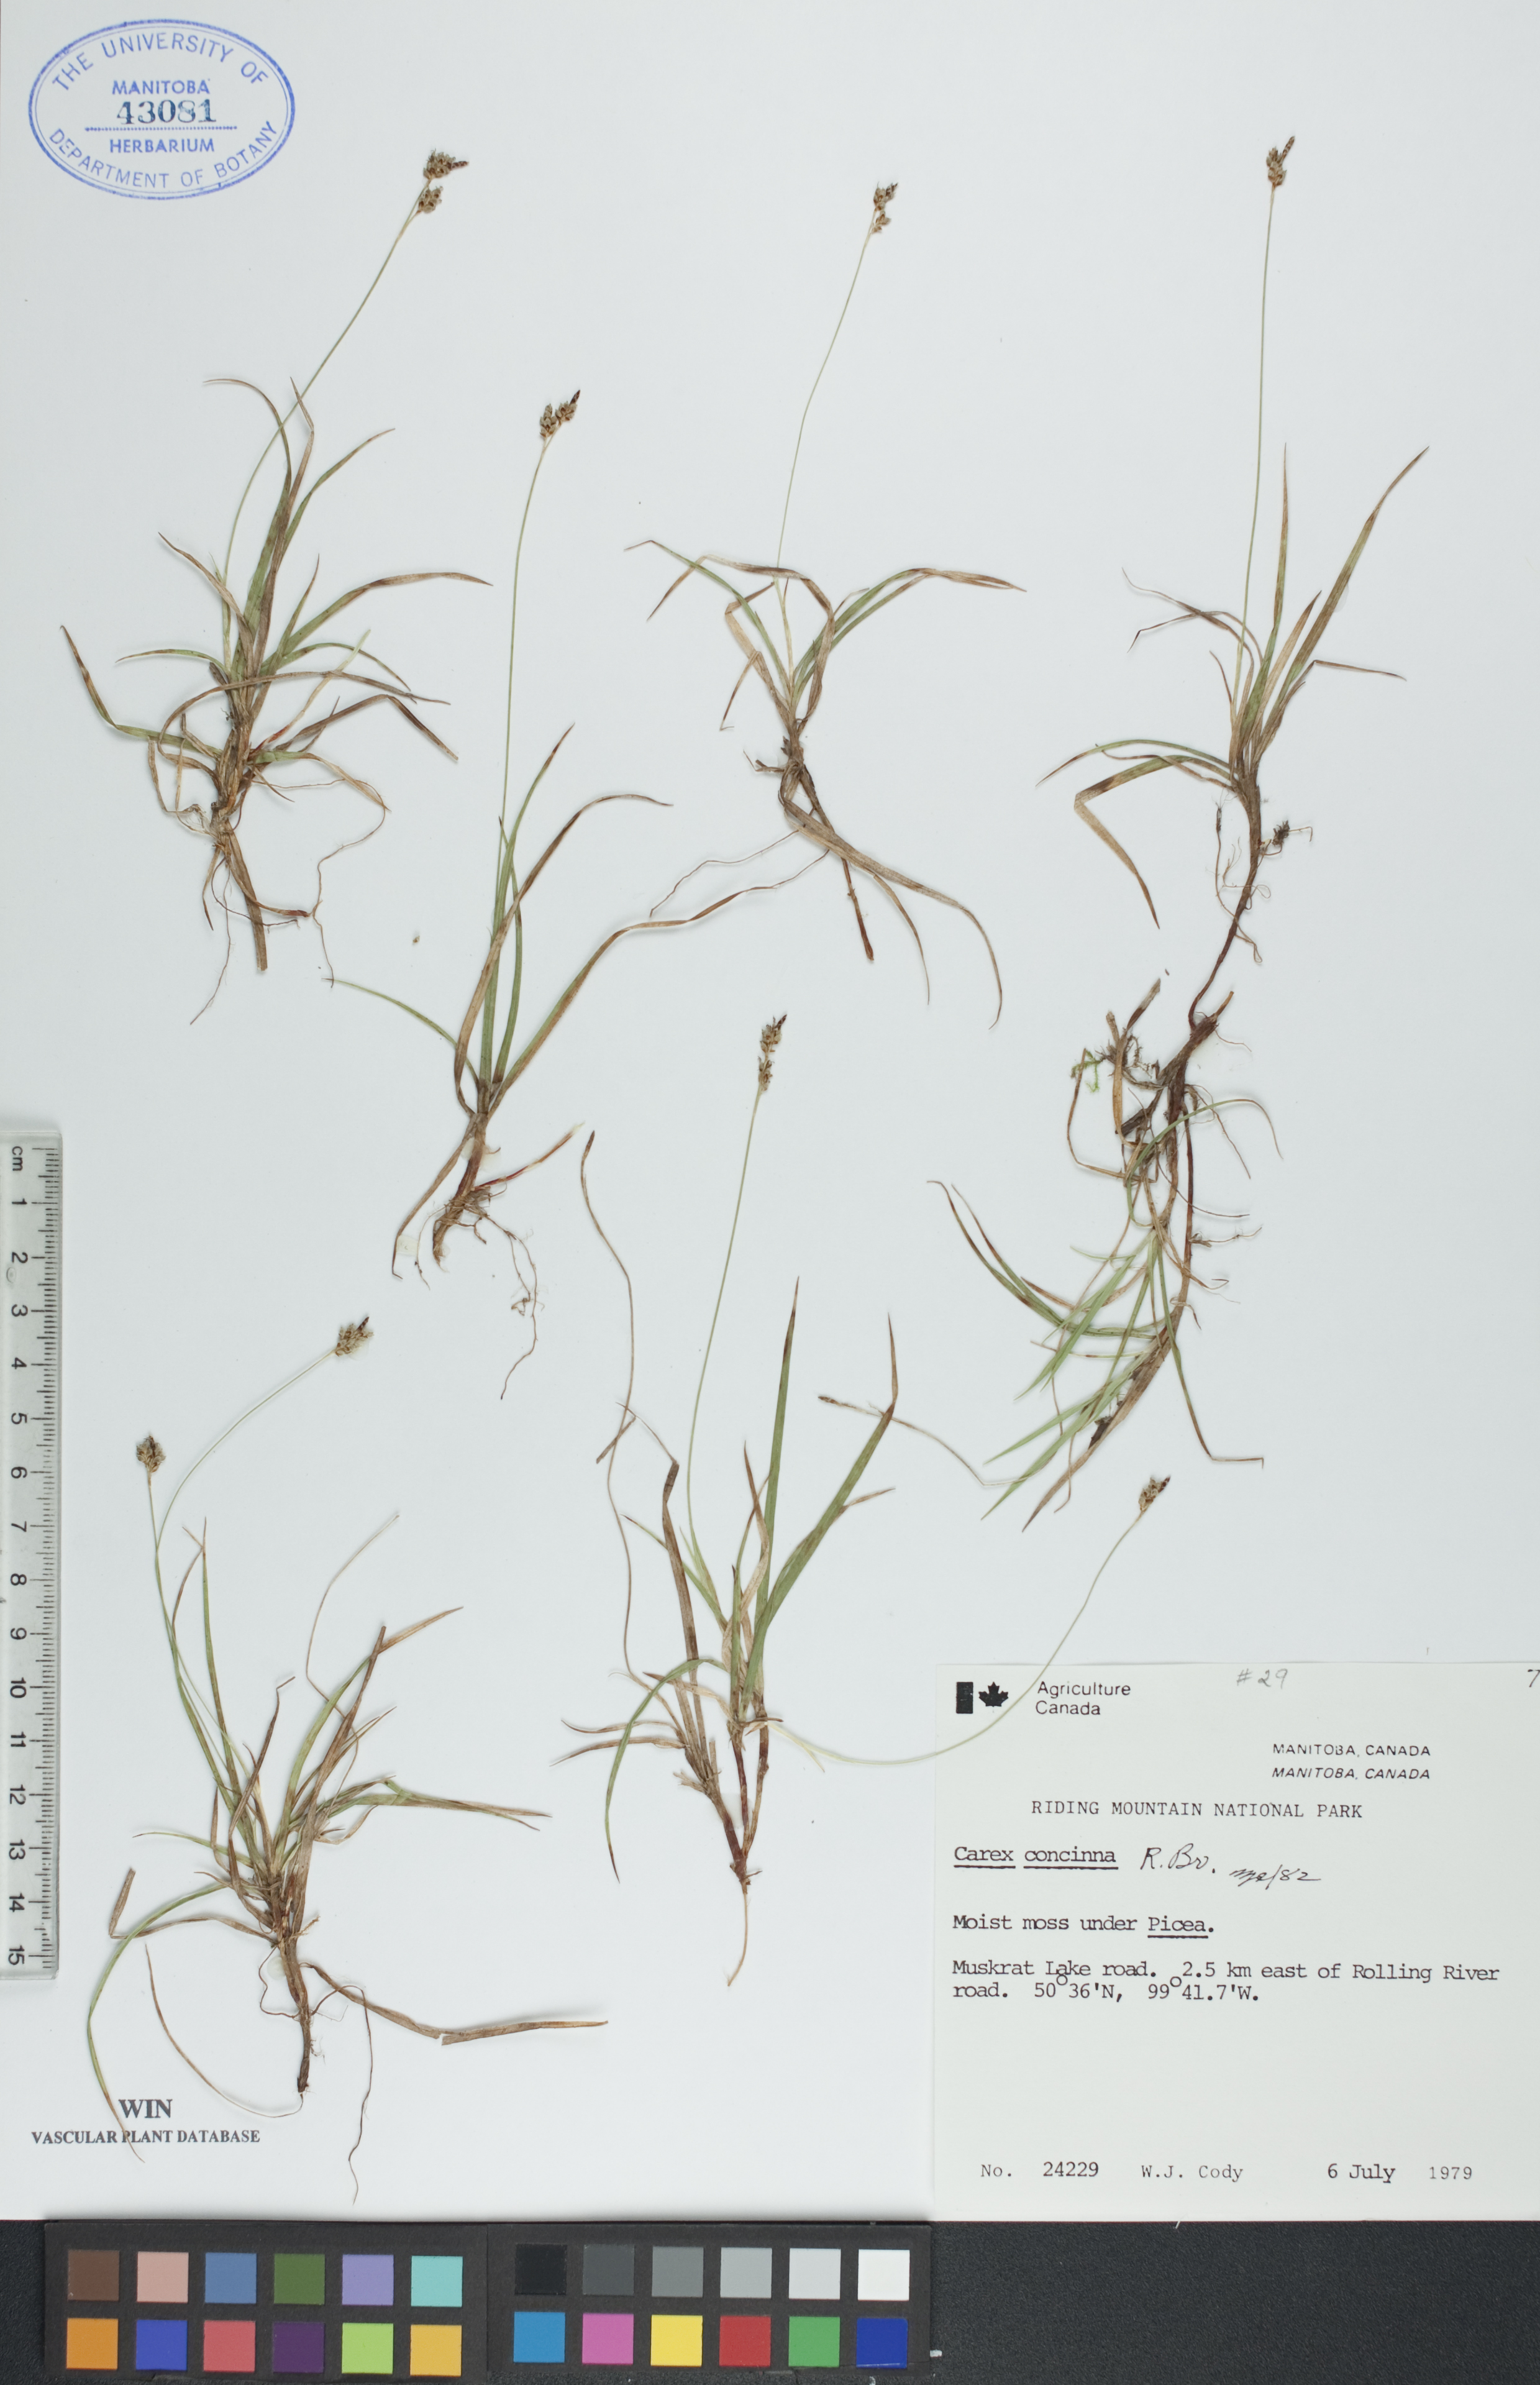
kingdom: Plantae
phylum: Tracheophyta
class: Liliopsida
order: Poales
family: Cyperaceae
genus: Carex
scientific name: Carex concinna
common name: Beautiful sedge
